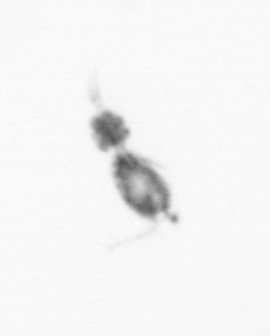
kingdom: Animalia
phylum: Arthropoda
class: Copepoda
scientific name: Copepoda
